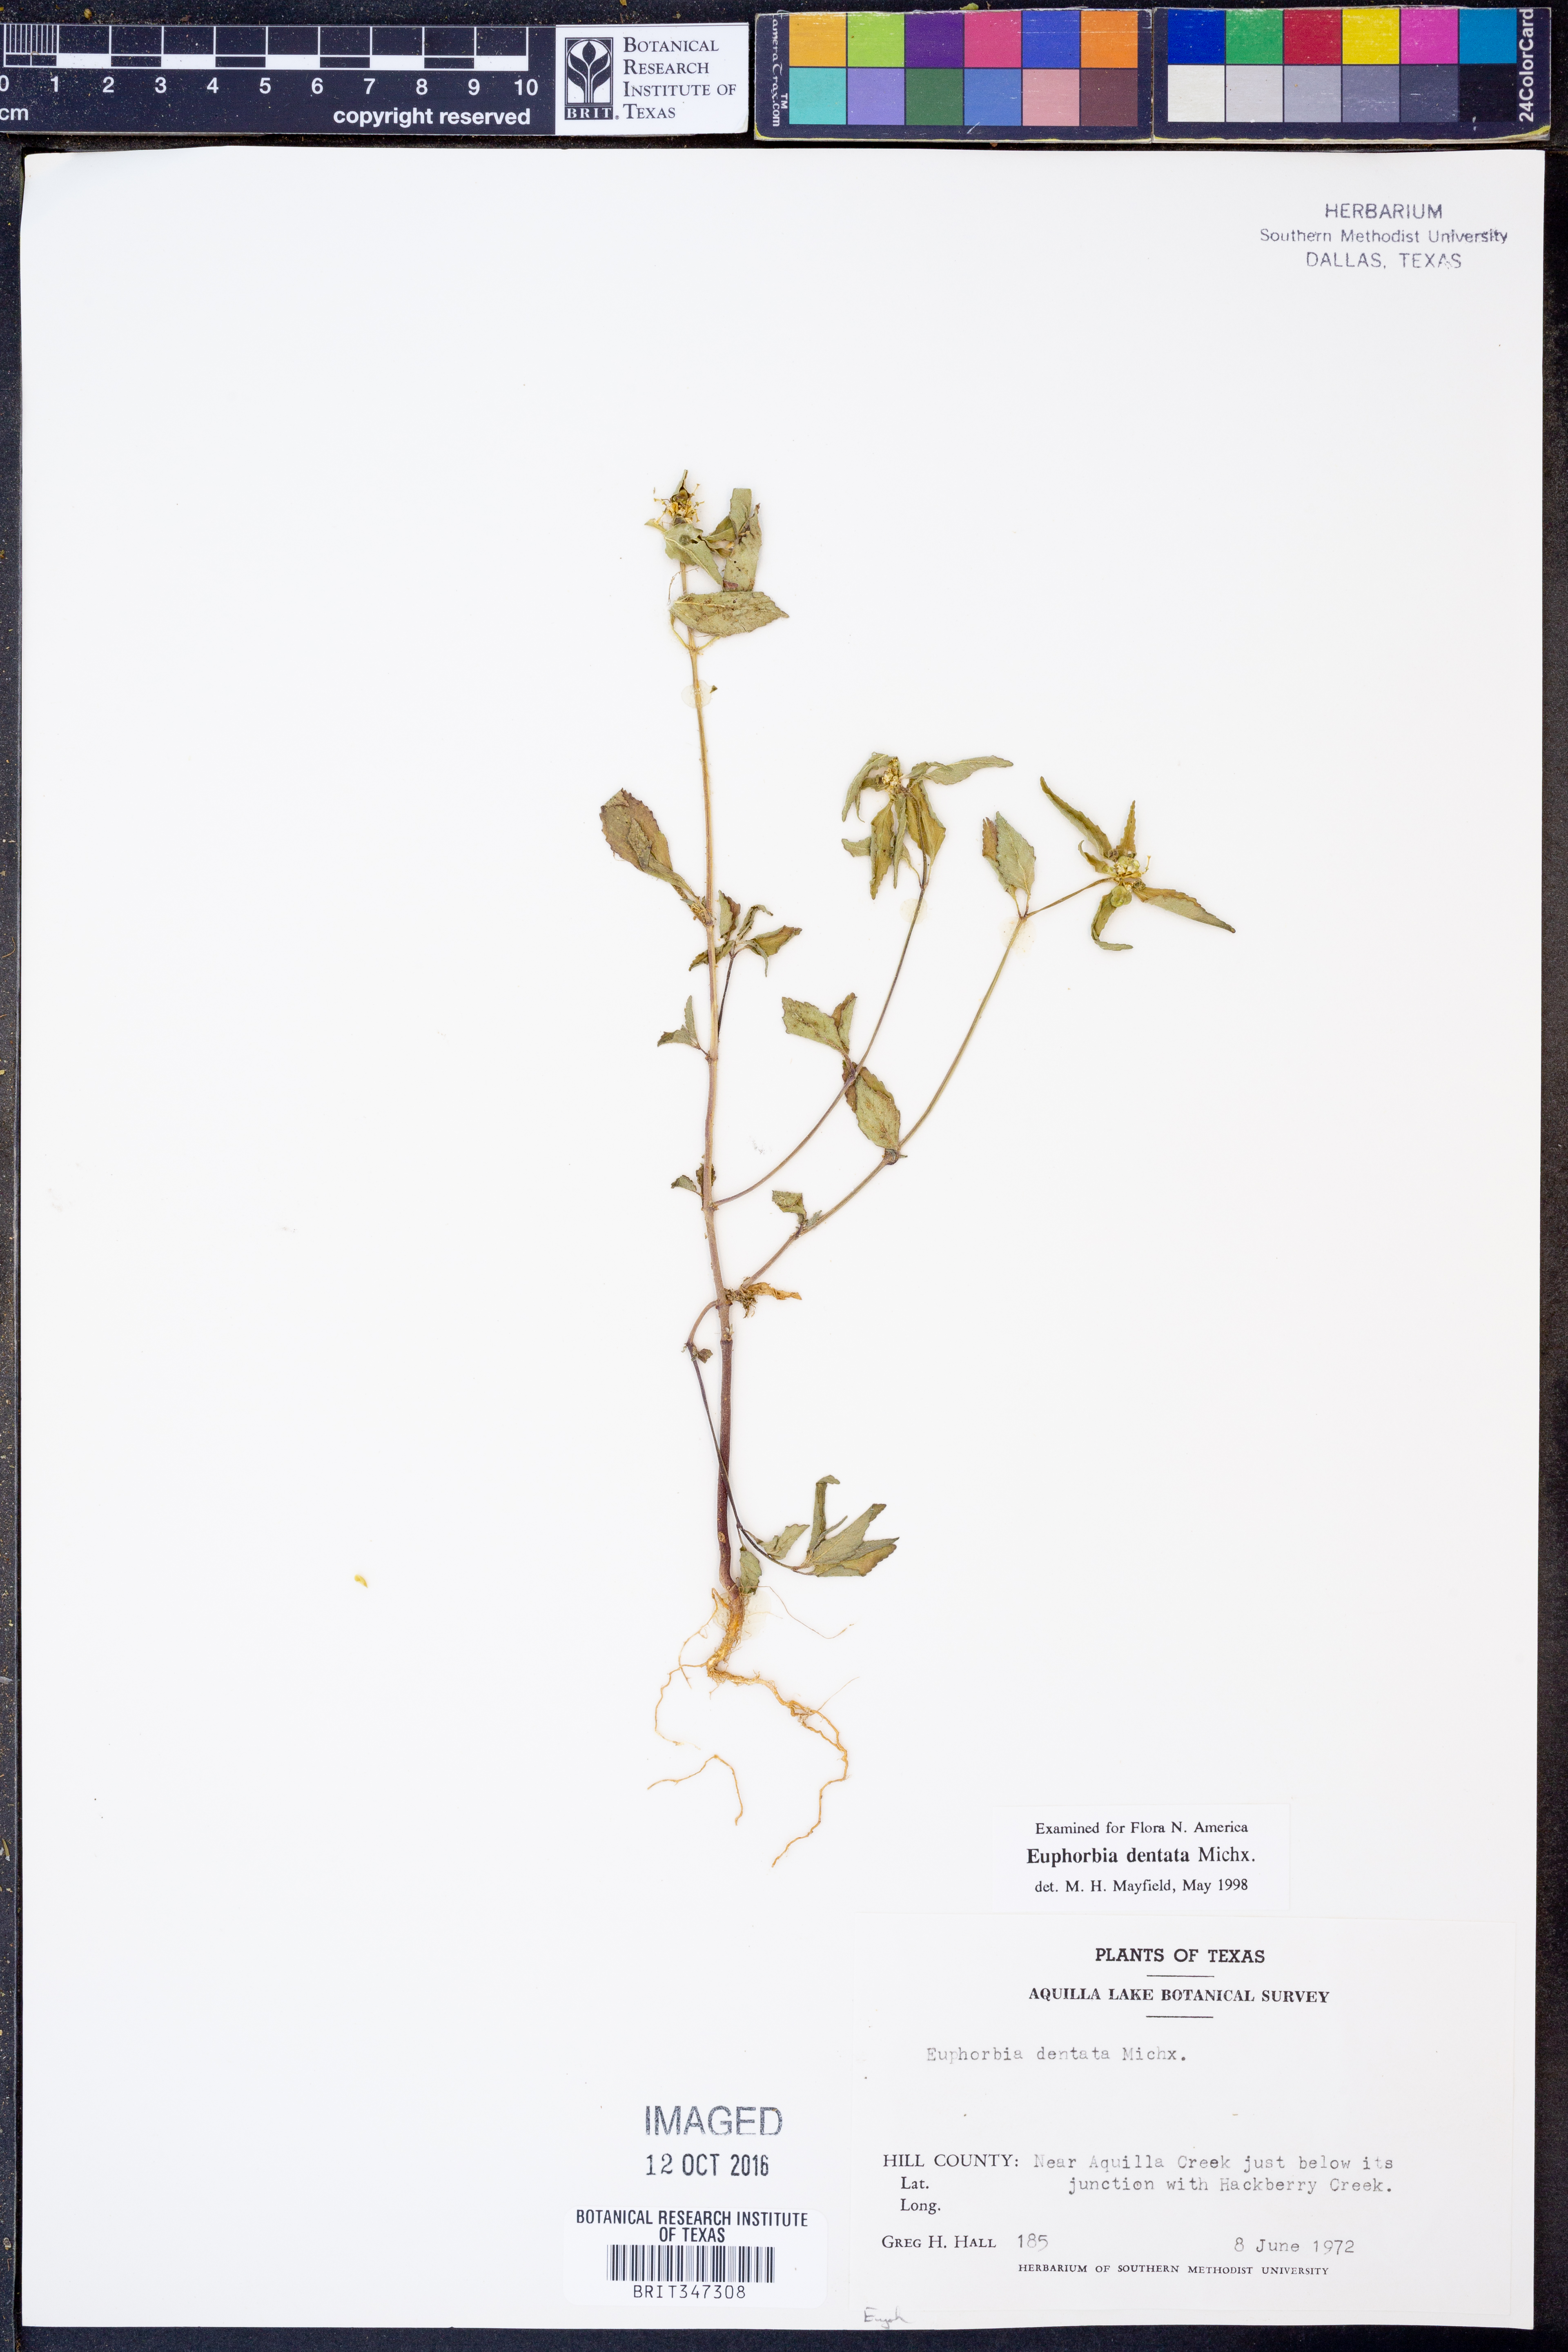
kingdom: Plantae
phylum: Tracheophyta
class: Magnoliopsida
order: Malpighiales
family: Euphorbiaceae
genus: Euphorbia
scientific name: Euphorbia dentata
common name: Dentate spurge
